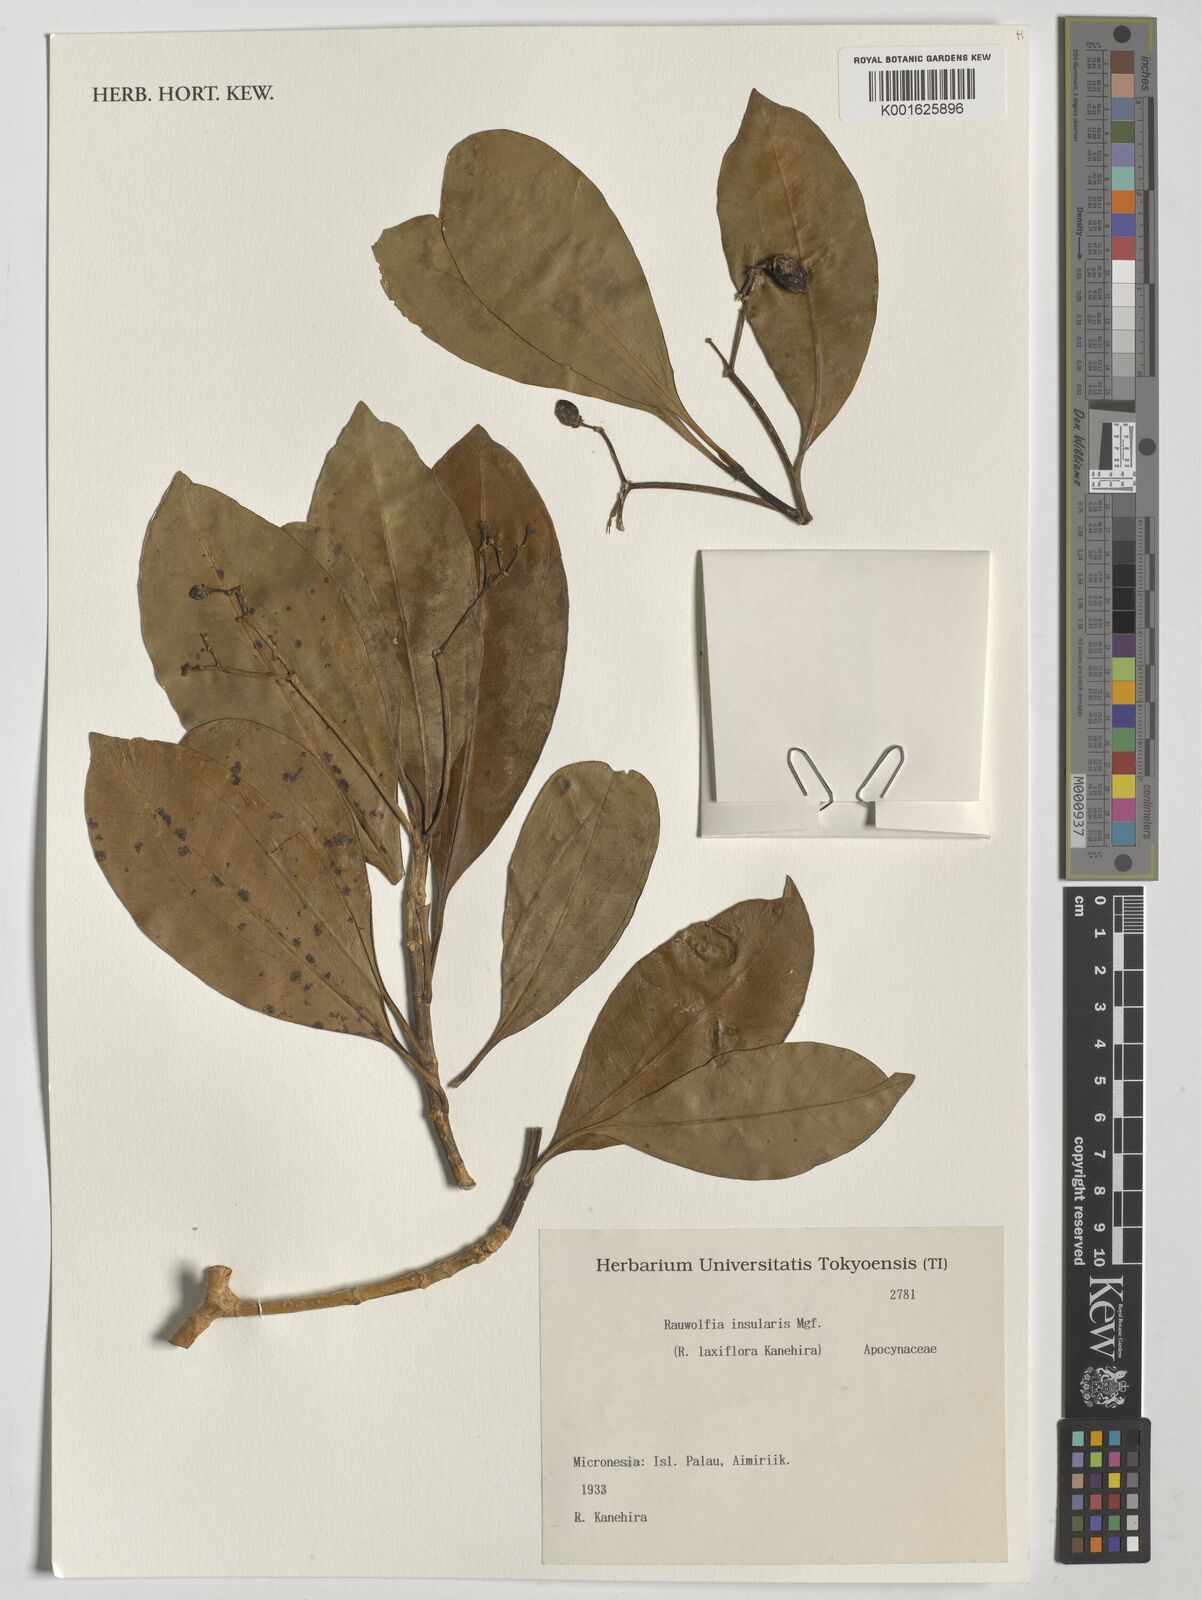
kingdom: Plantae
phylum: Tracheophyta
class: Magnoliopsida
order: Lamiales
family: Verbenaceae
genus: Citharexylum
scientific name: Citharexylum
